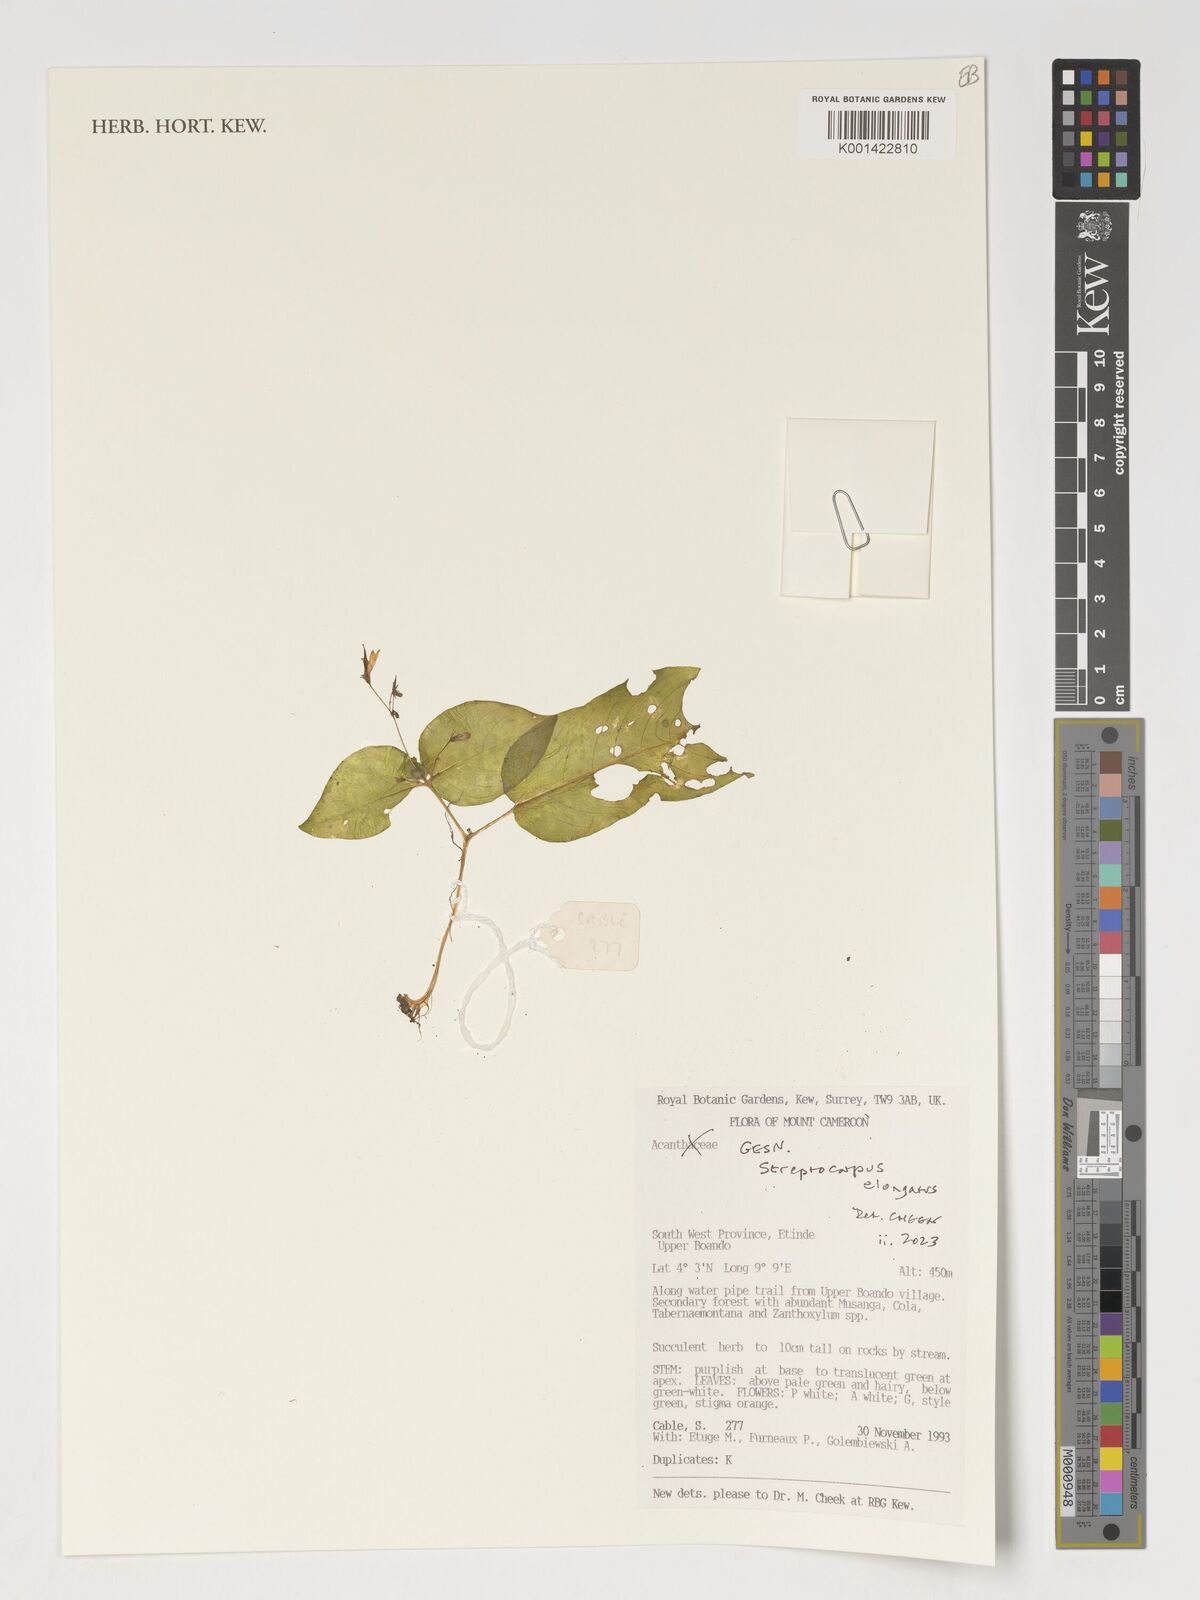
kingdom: Plantae
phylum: Tracheophyta
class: Magnoliopsida
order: Lamiales
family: Gesneriaceae
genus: Streptocarpus
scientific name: Streptocarpus elongatus
